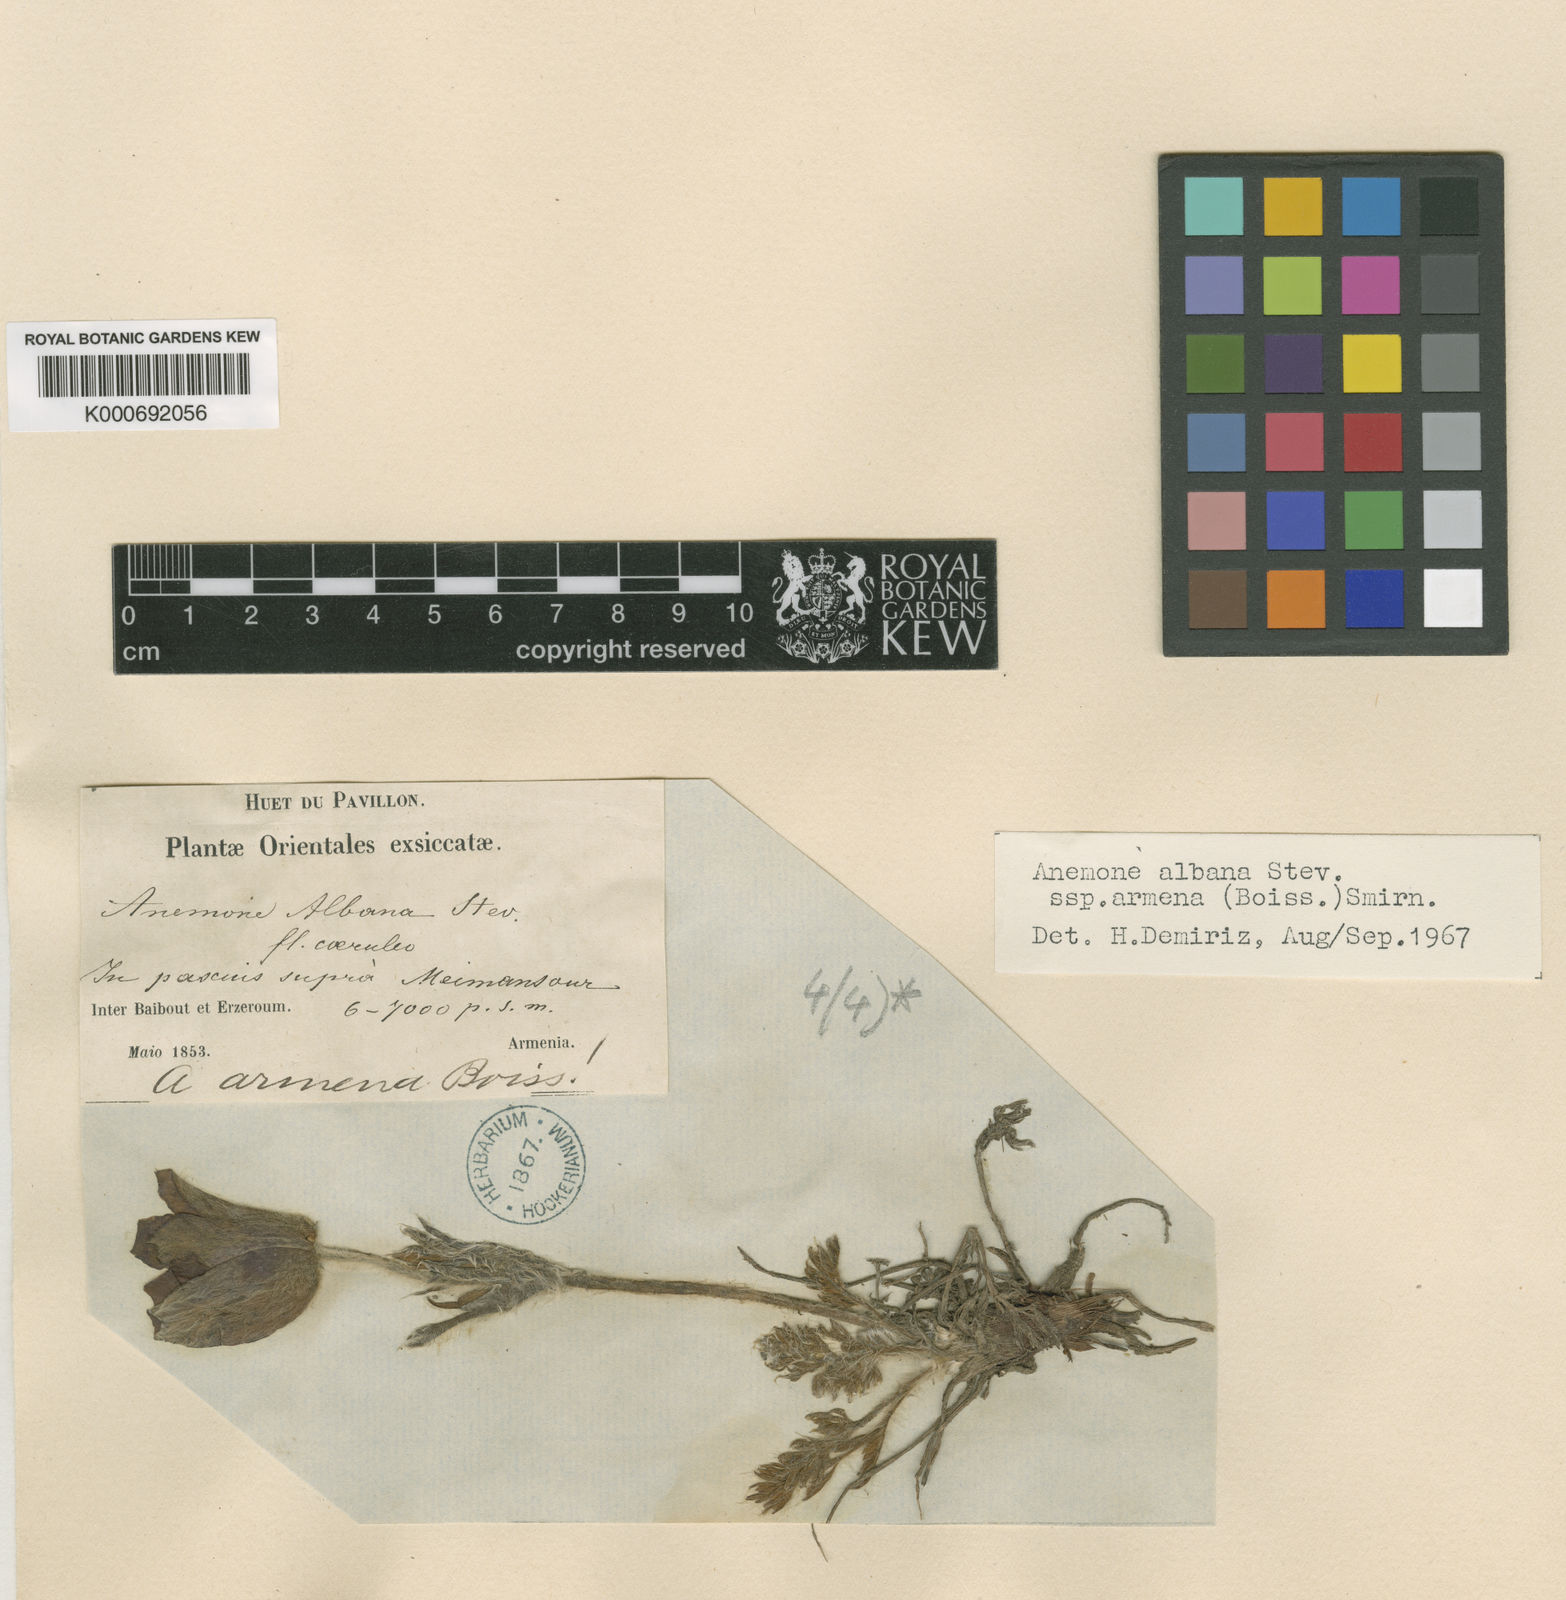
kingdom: Plantae
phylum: Tracheophyta
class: Magnoliopsida
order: Ranunculales
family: Ranunculaceae
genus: Pulsatilla
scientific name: Pulsatilla albana
